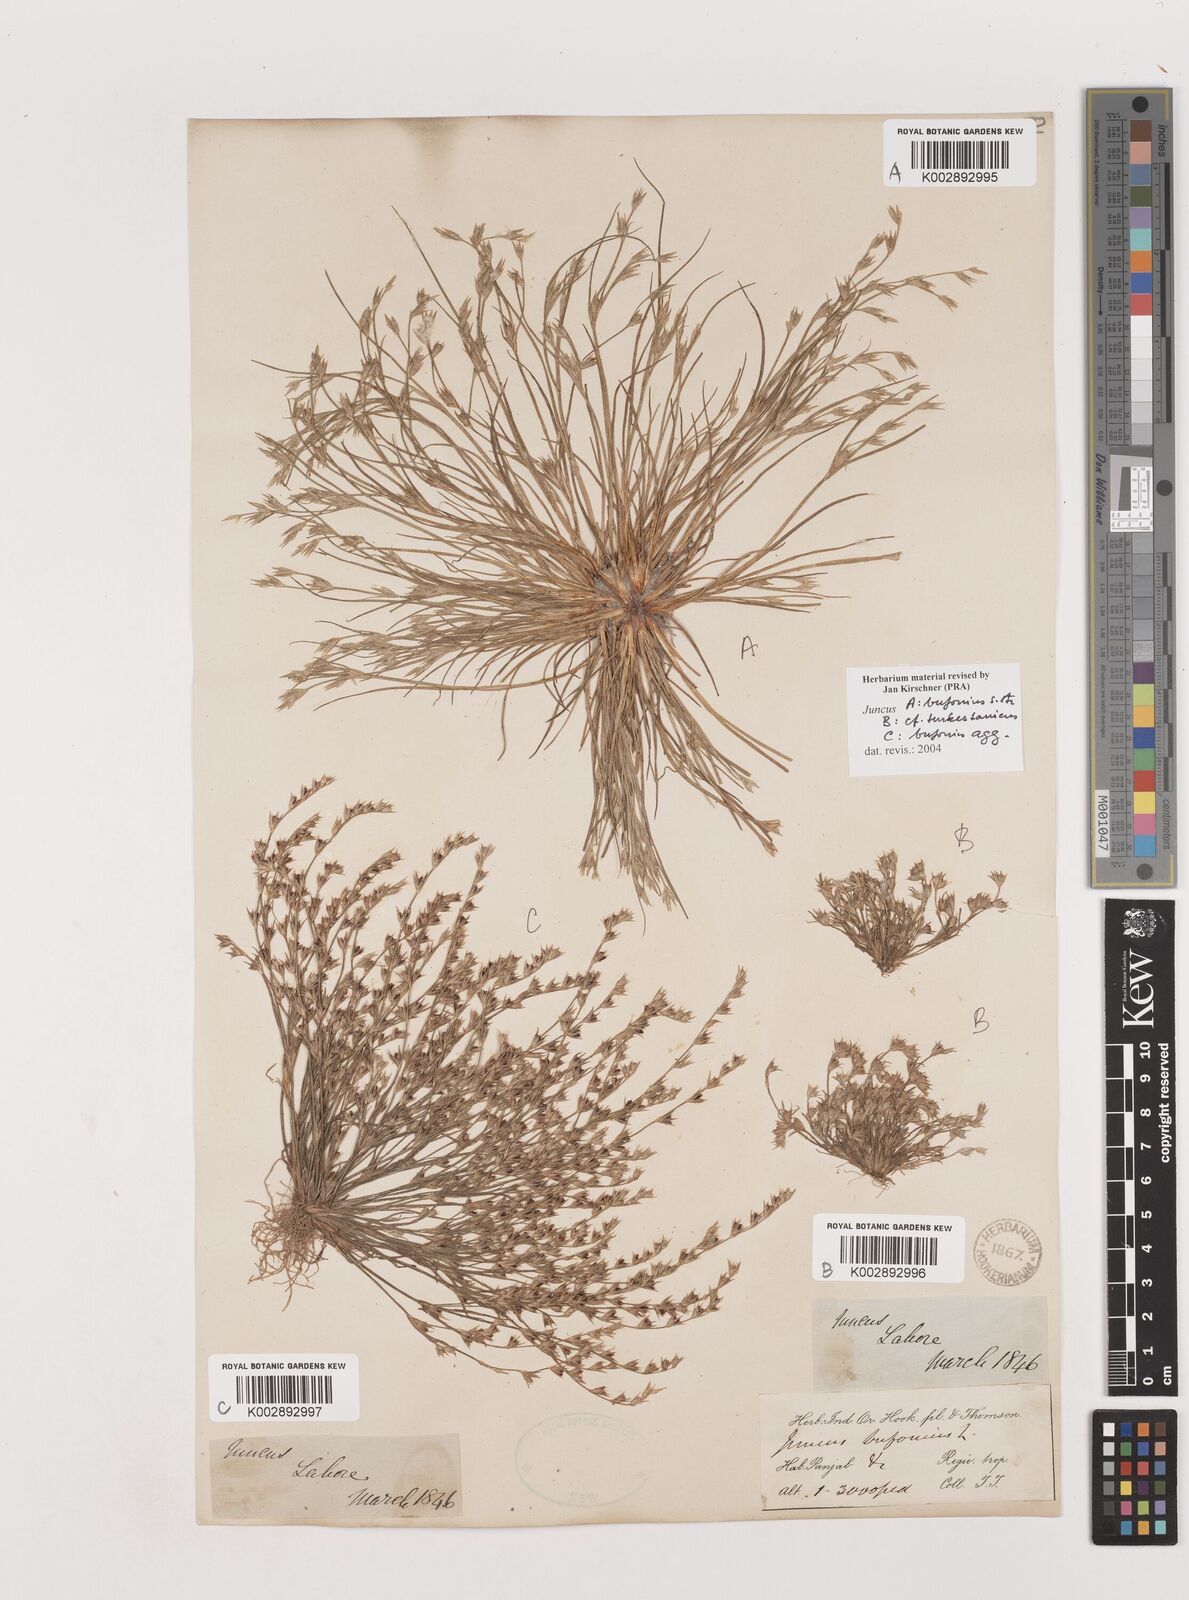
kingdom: Plantae
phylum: Tracheophyta
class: Liliopsida
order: Poales
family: Juncaceae
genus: Juncus
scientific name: Juncus
